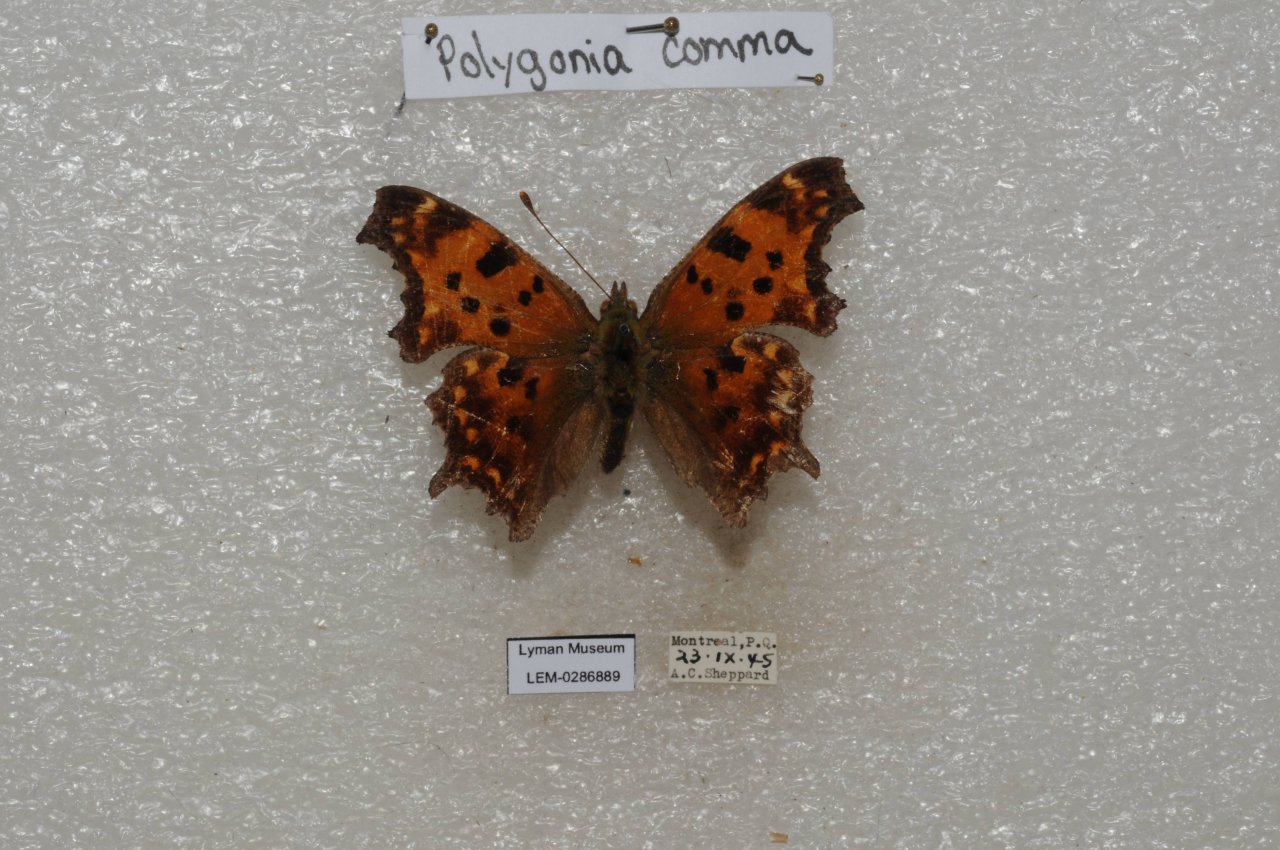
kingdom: Animalia
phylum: Arthropoda
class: Insecta
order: Lepidoptera
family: Nymphalidae
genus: Polygonia
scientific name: Polygonia comma
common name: Eastern Comma
